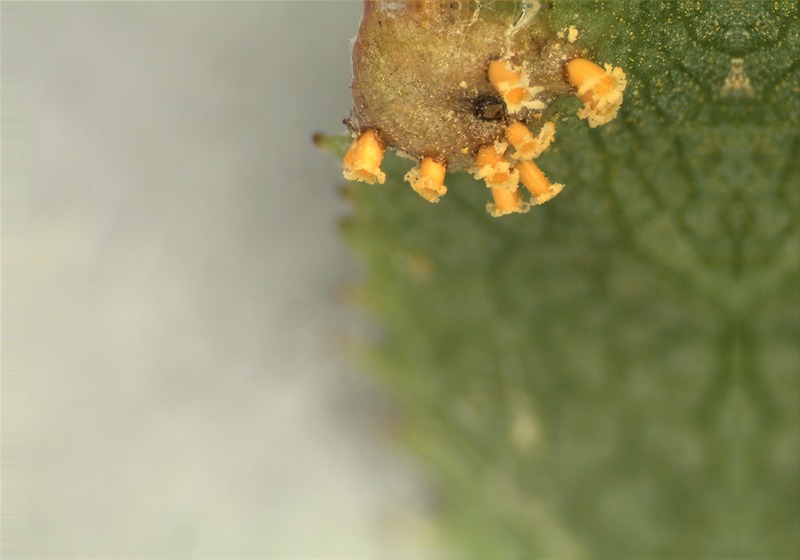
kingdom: Fungi
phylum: Basidiomycota
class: Pucciniomycetes
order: Pucciniales
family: Pucciniaceae
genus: Puccinia
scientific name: Puccinia graminis
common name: Black stem rust
